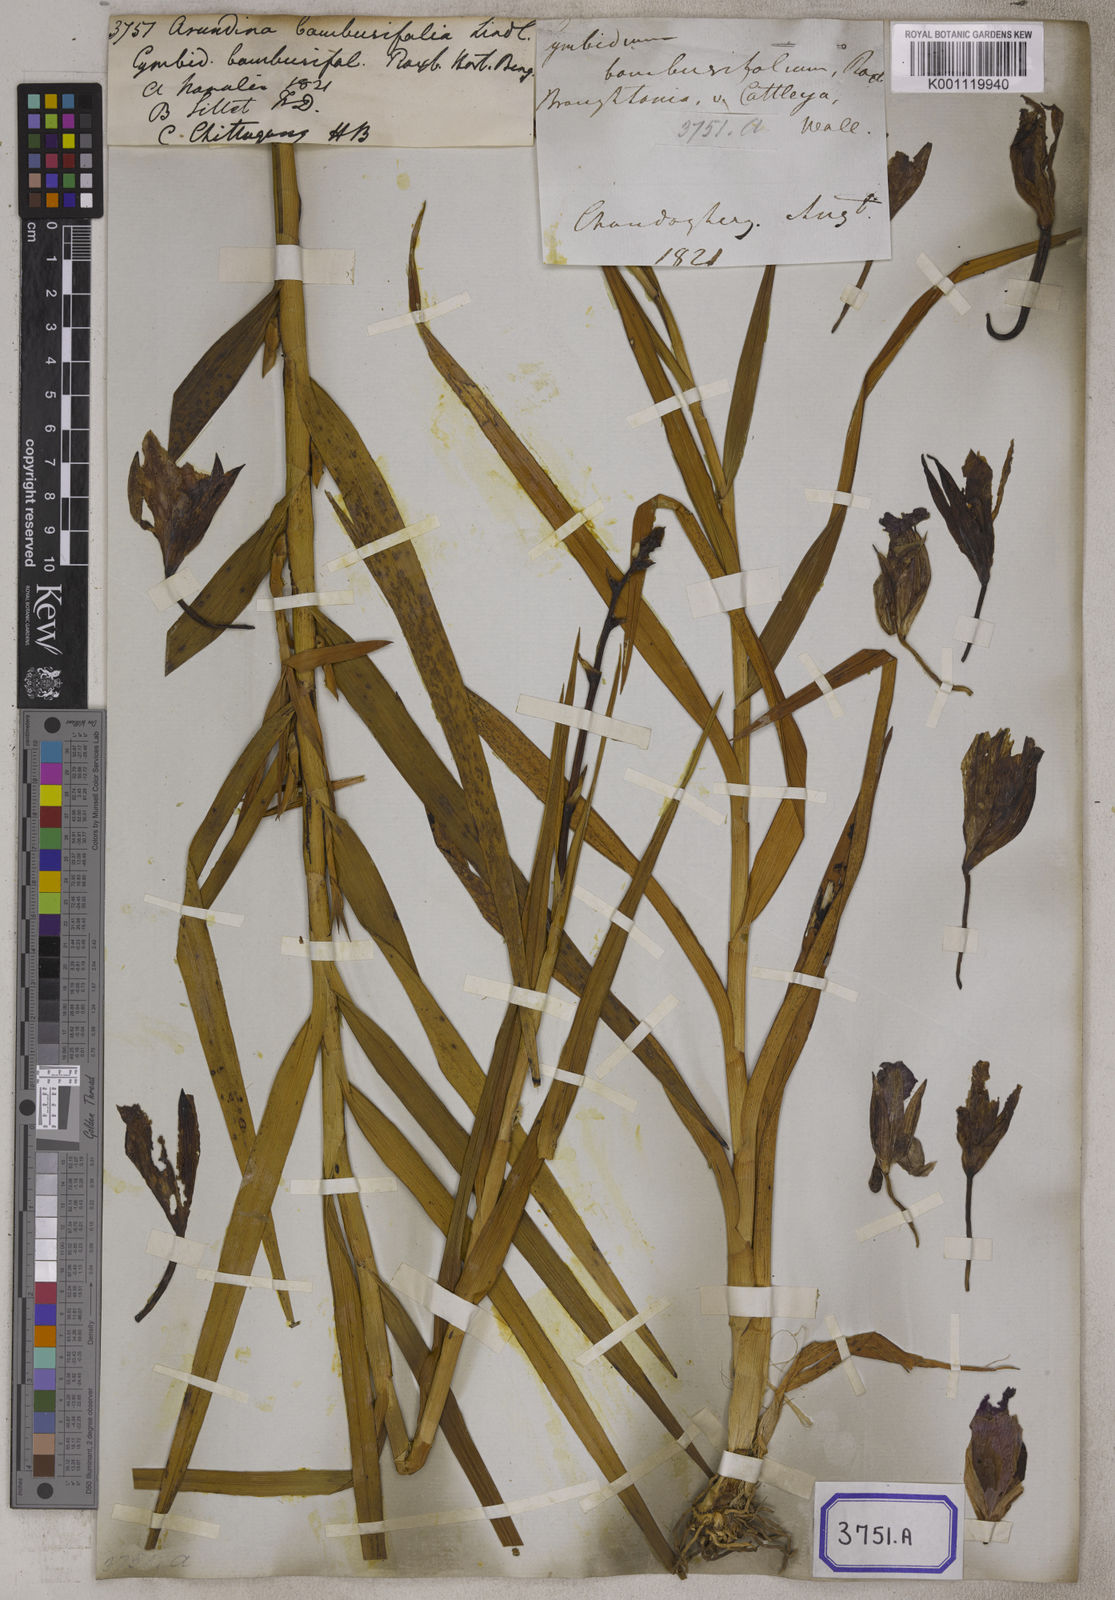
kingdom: Plantae
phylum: Tracheophyta
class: Liliopsida
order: Asparagales
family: Orchidaceae
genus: Arundina
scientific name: Arundina graminifolia
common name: Bamboo orchid
